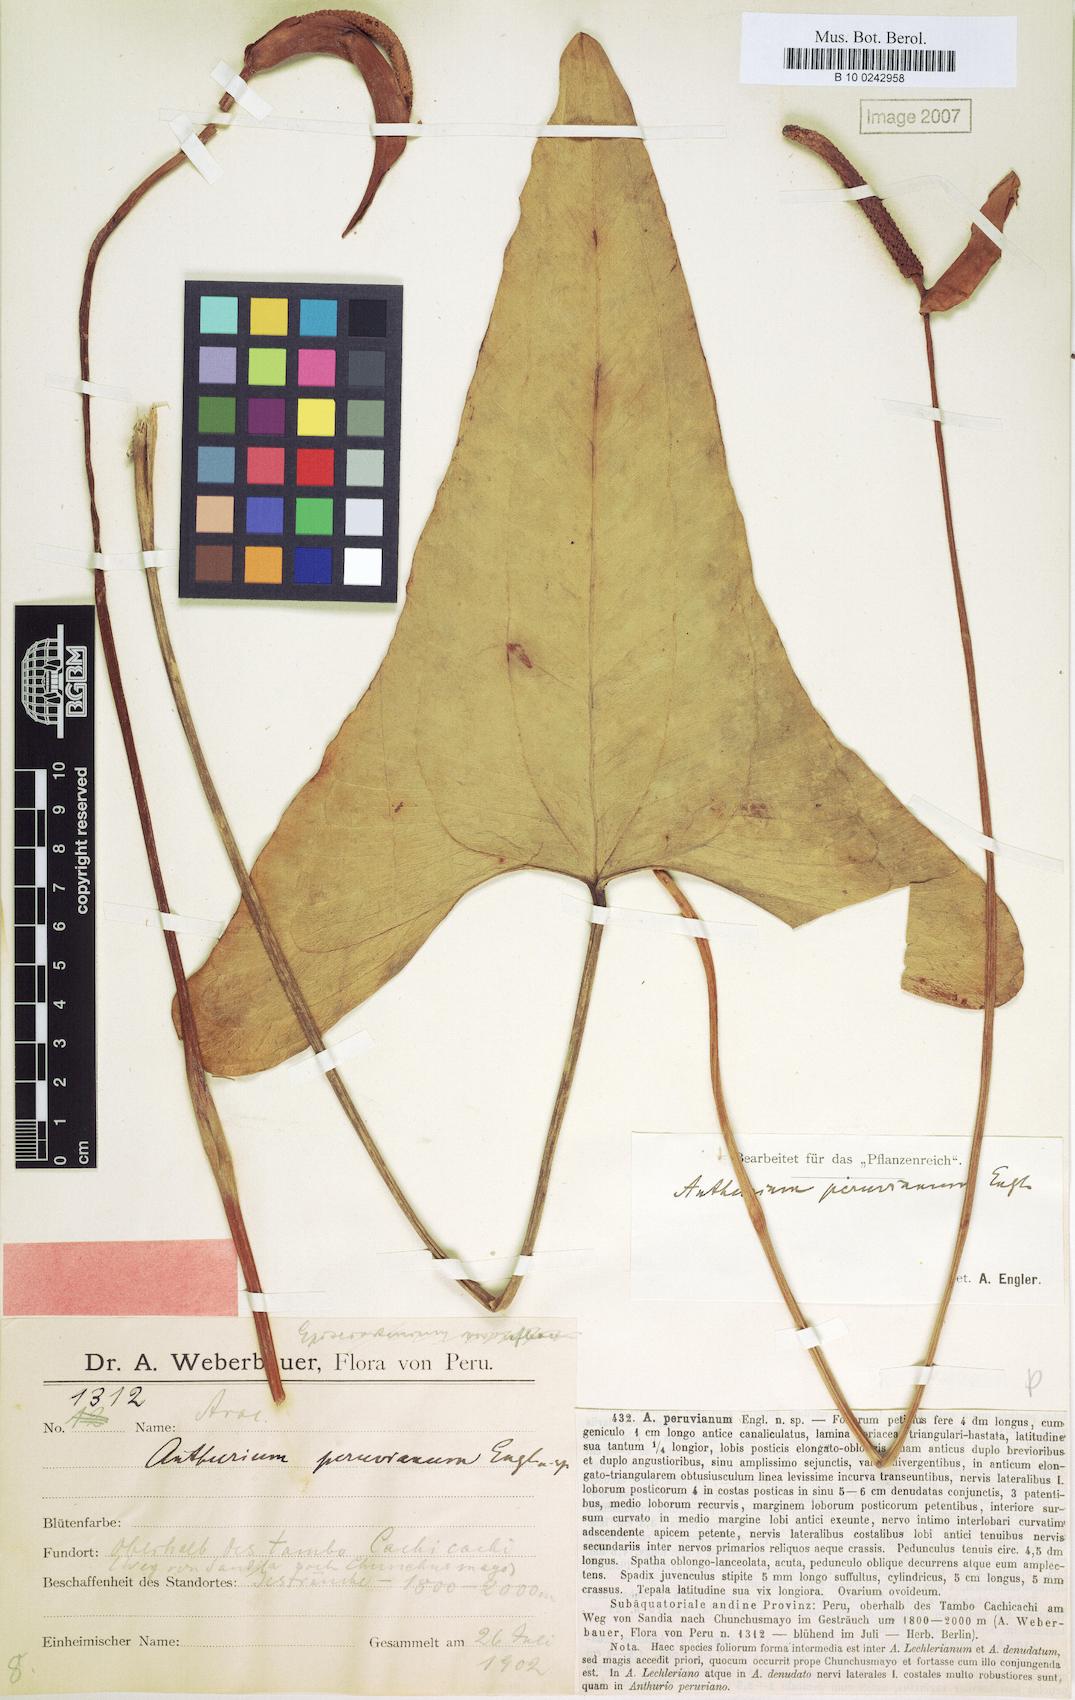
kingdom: Plantae
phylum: Tracheophyta
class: Liliopsida
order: Alismatales
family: Araceae
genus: Anthurium
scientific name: Anthurium lechlerianum
